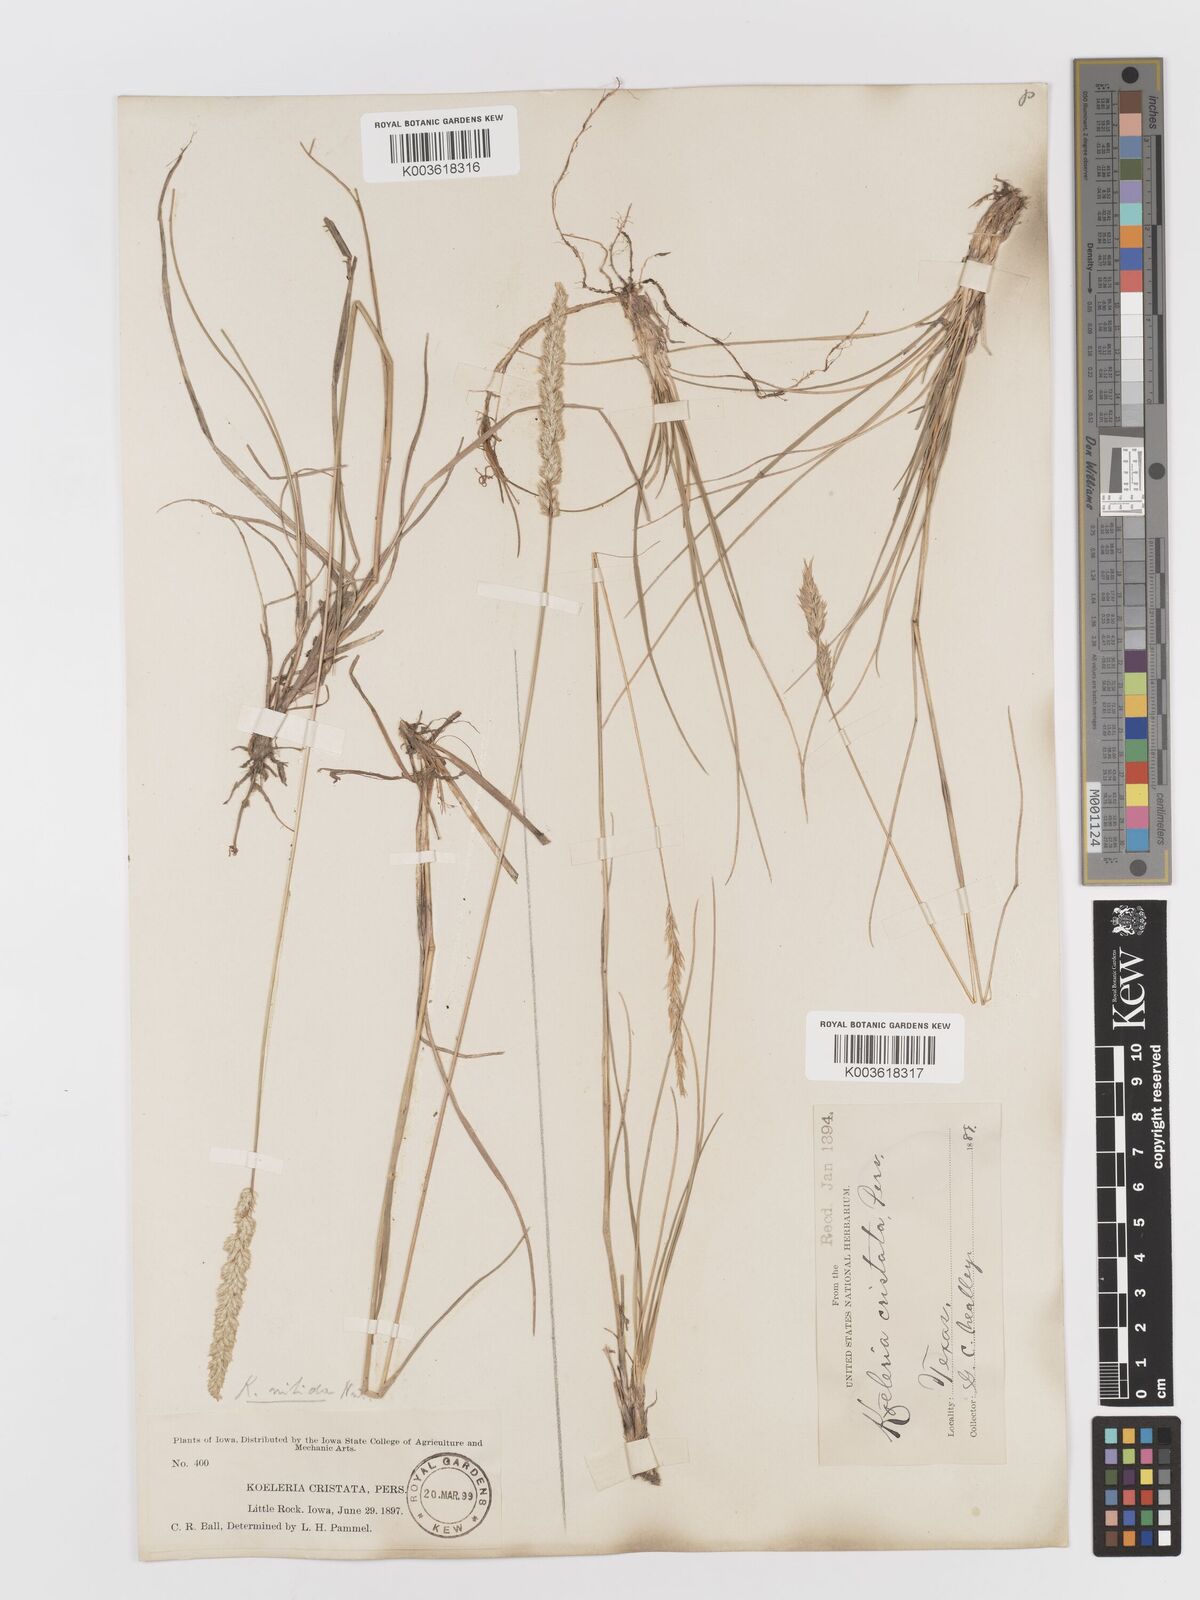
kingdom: Plantae
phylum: Tracheophyta
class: Liliopsida
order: Poales
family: Poaceae
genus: Koeleria
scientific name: Koeleria macrantha
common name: Crested hair-grass
